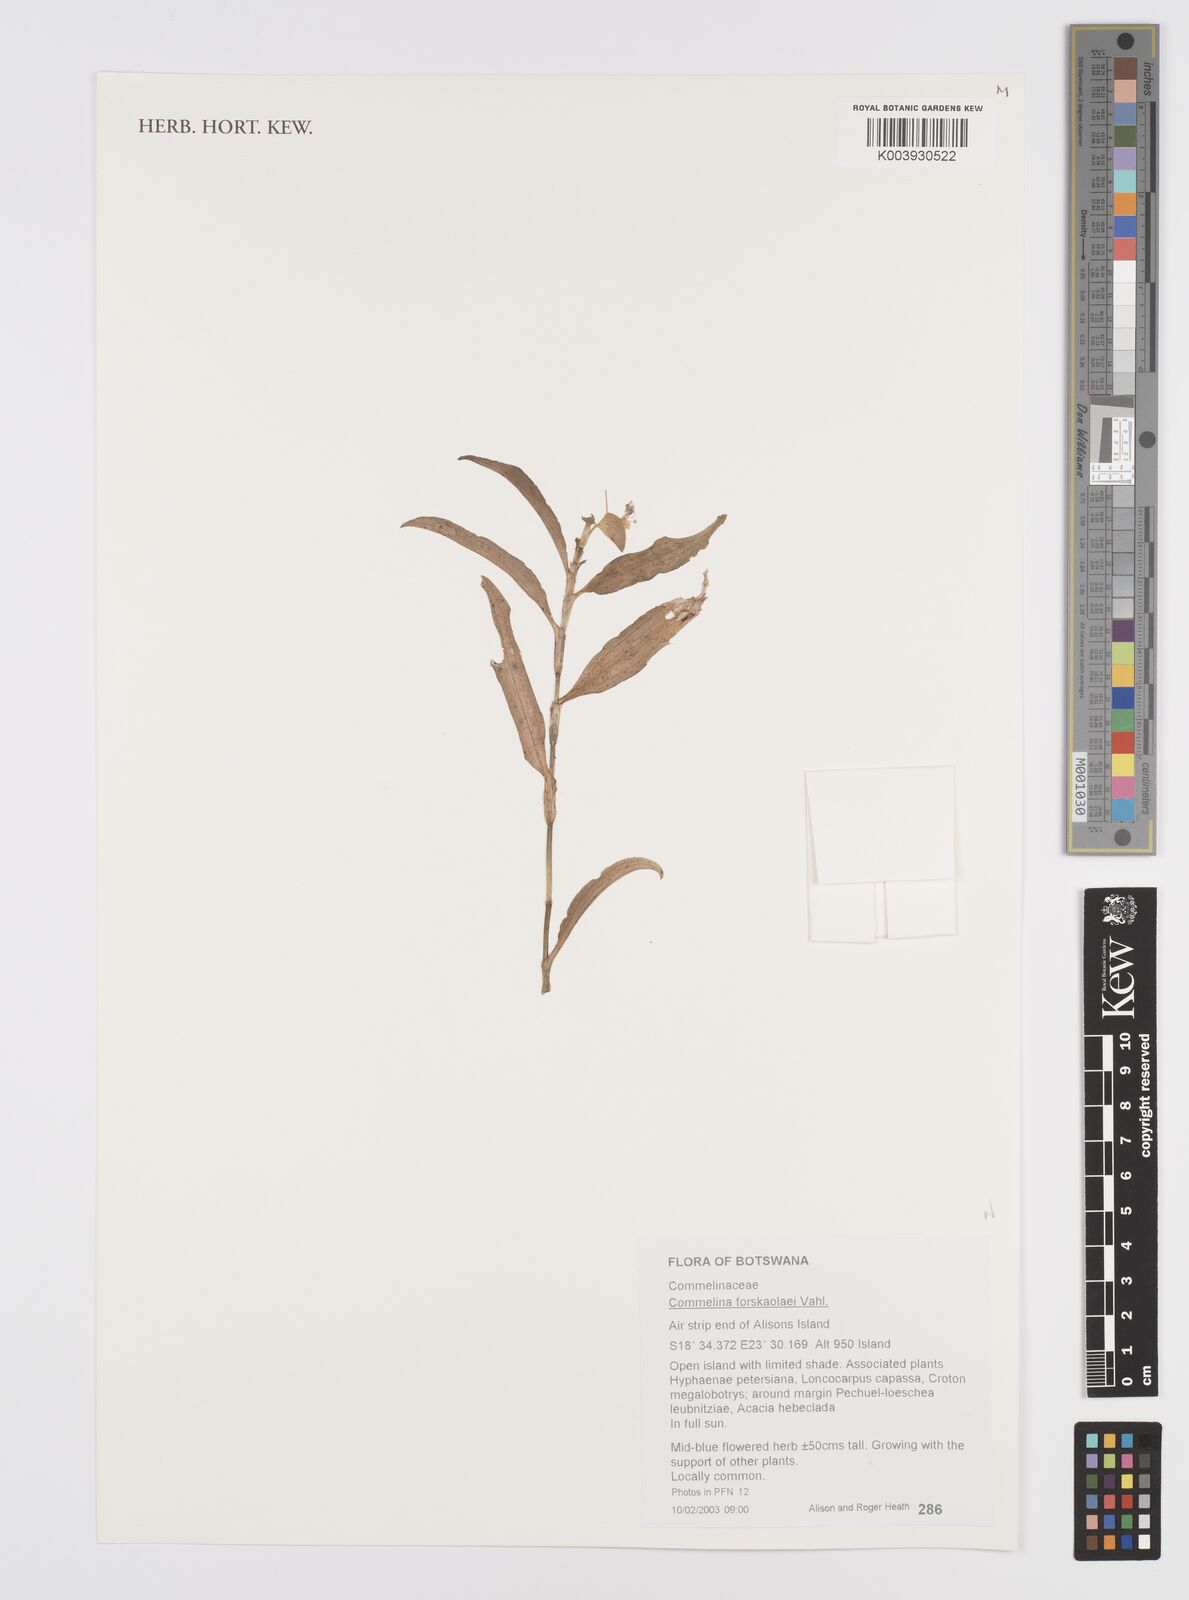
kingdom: Plantae
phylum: Tracheophyta
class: Liliopsida
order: Commelinales
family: Commelinaceae
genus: Commelina
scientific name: Commelina forskaolii
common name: Rat's ear
